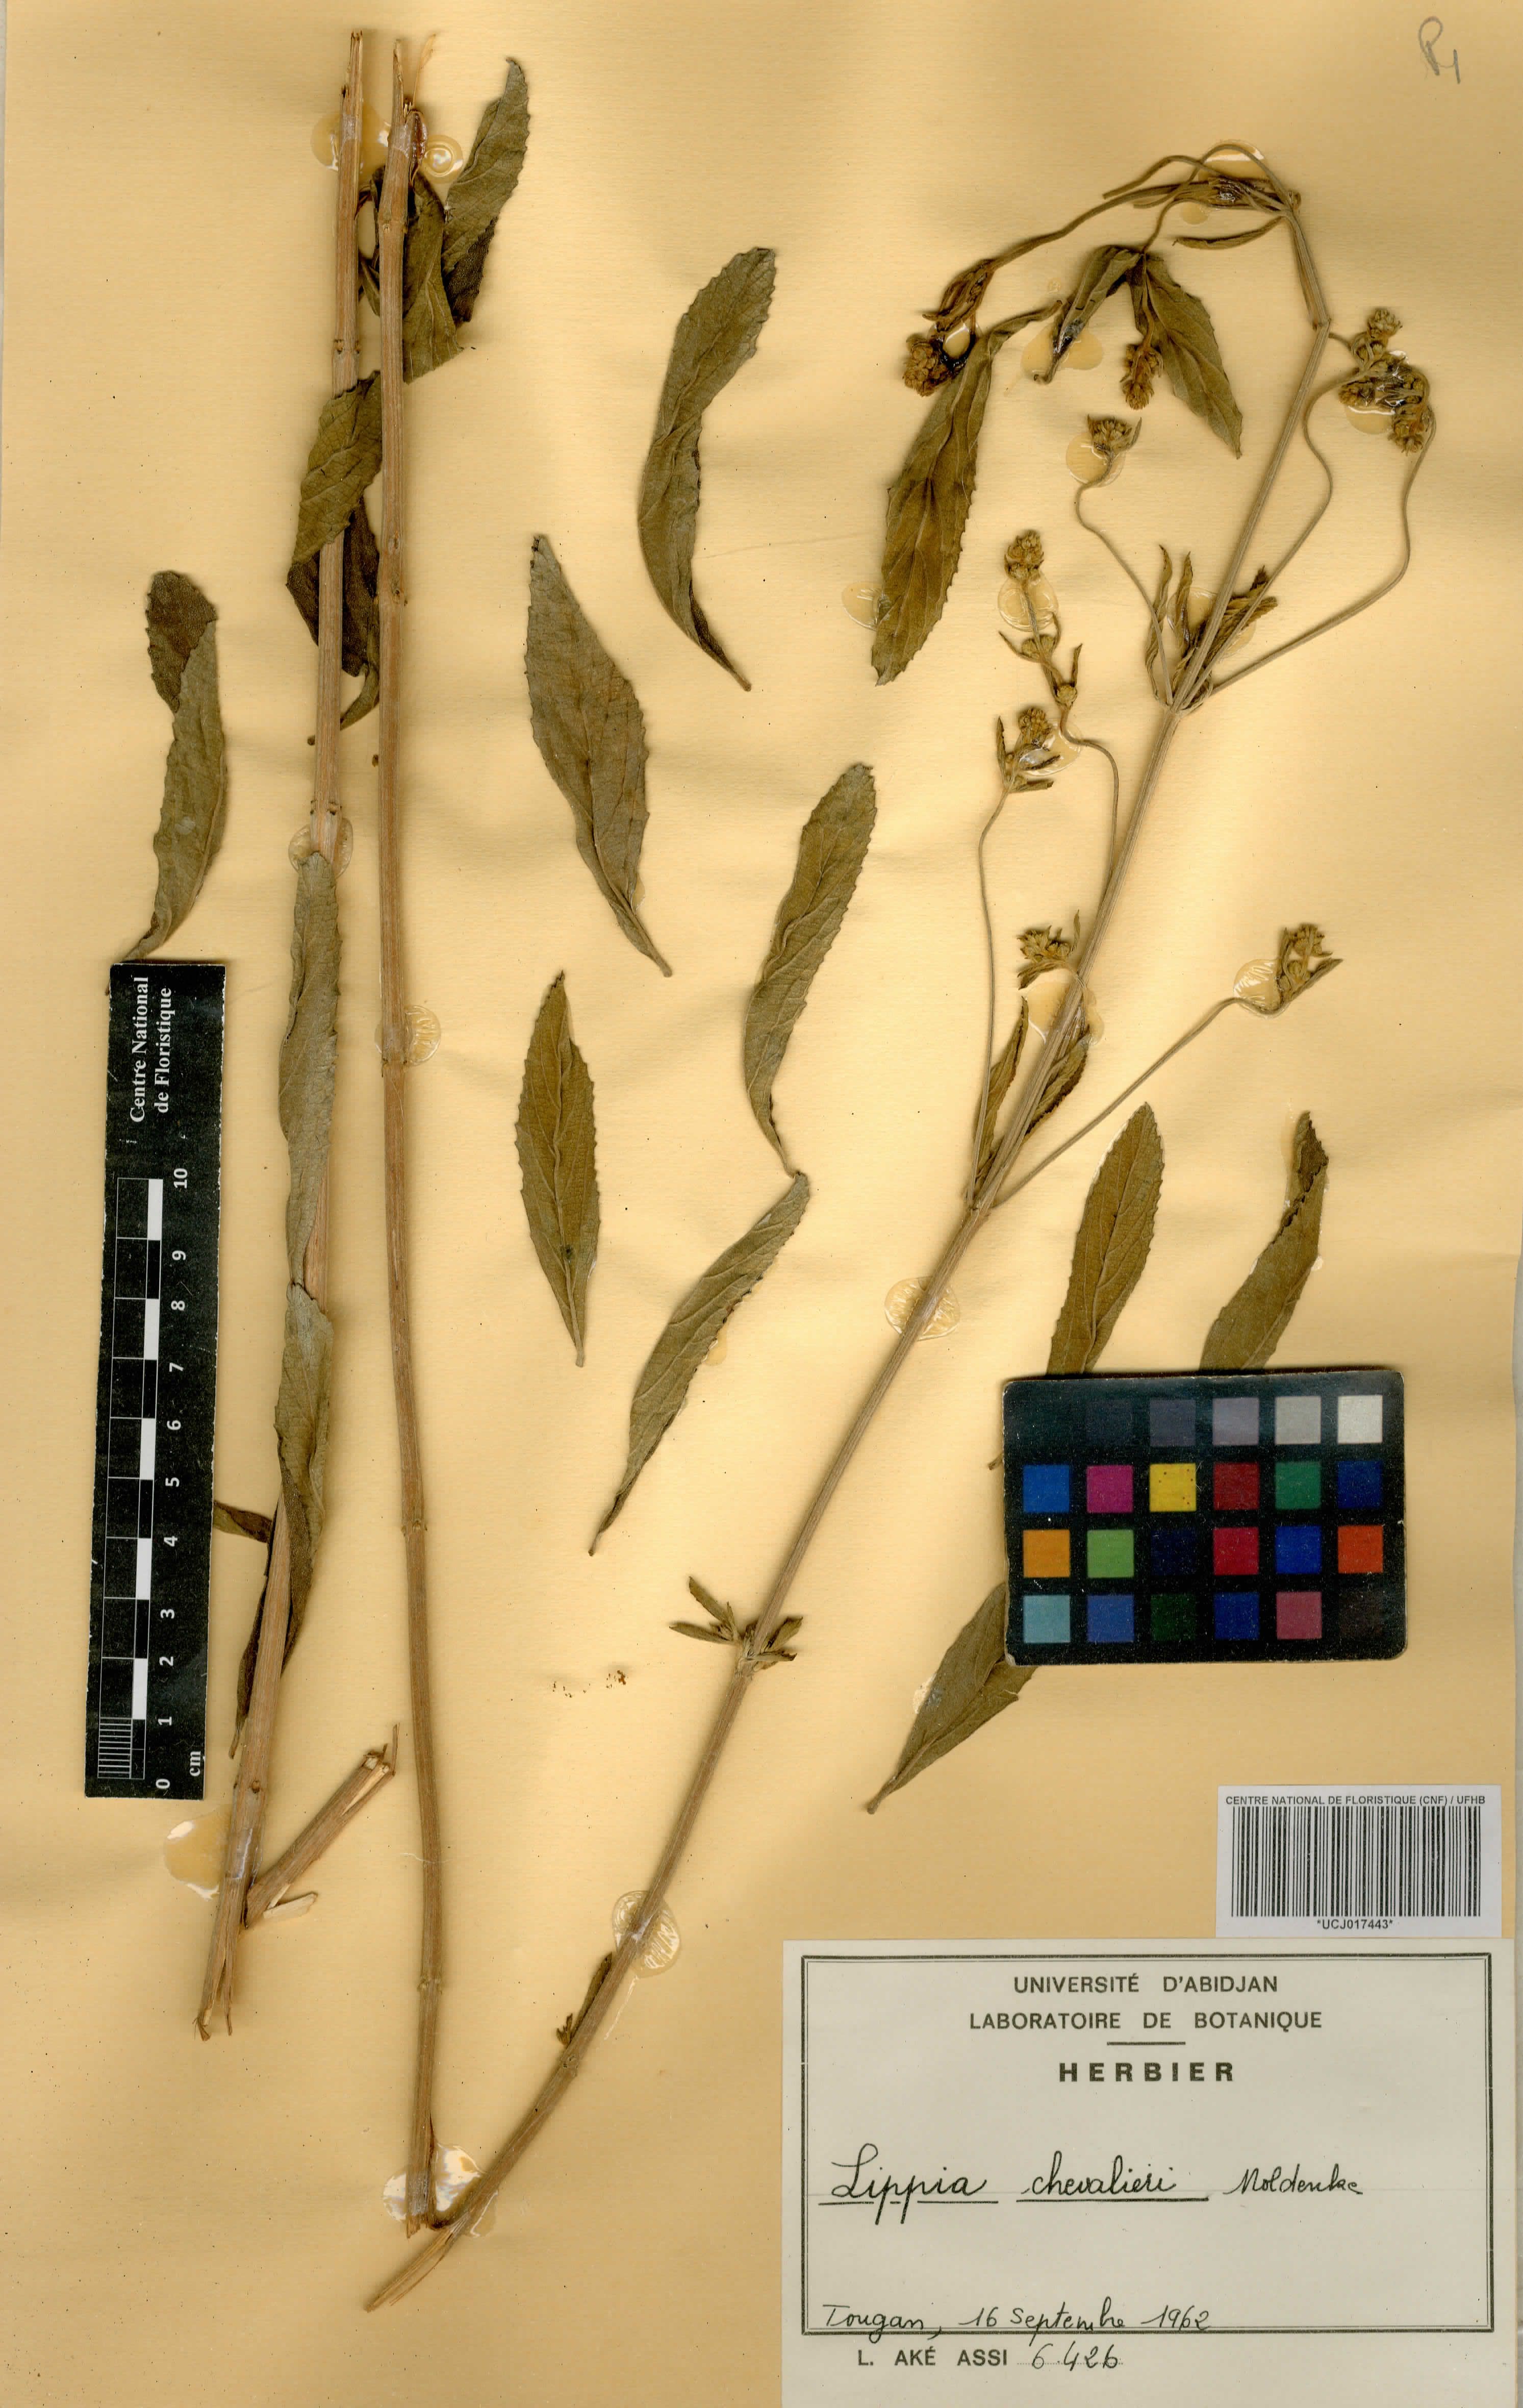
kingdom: Plantae
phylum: Tracheophyta
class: Magnoliopsida
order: Lamiales
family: Verbenaceae
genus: Lippia
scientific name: Lippia chevalieri
